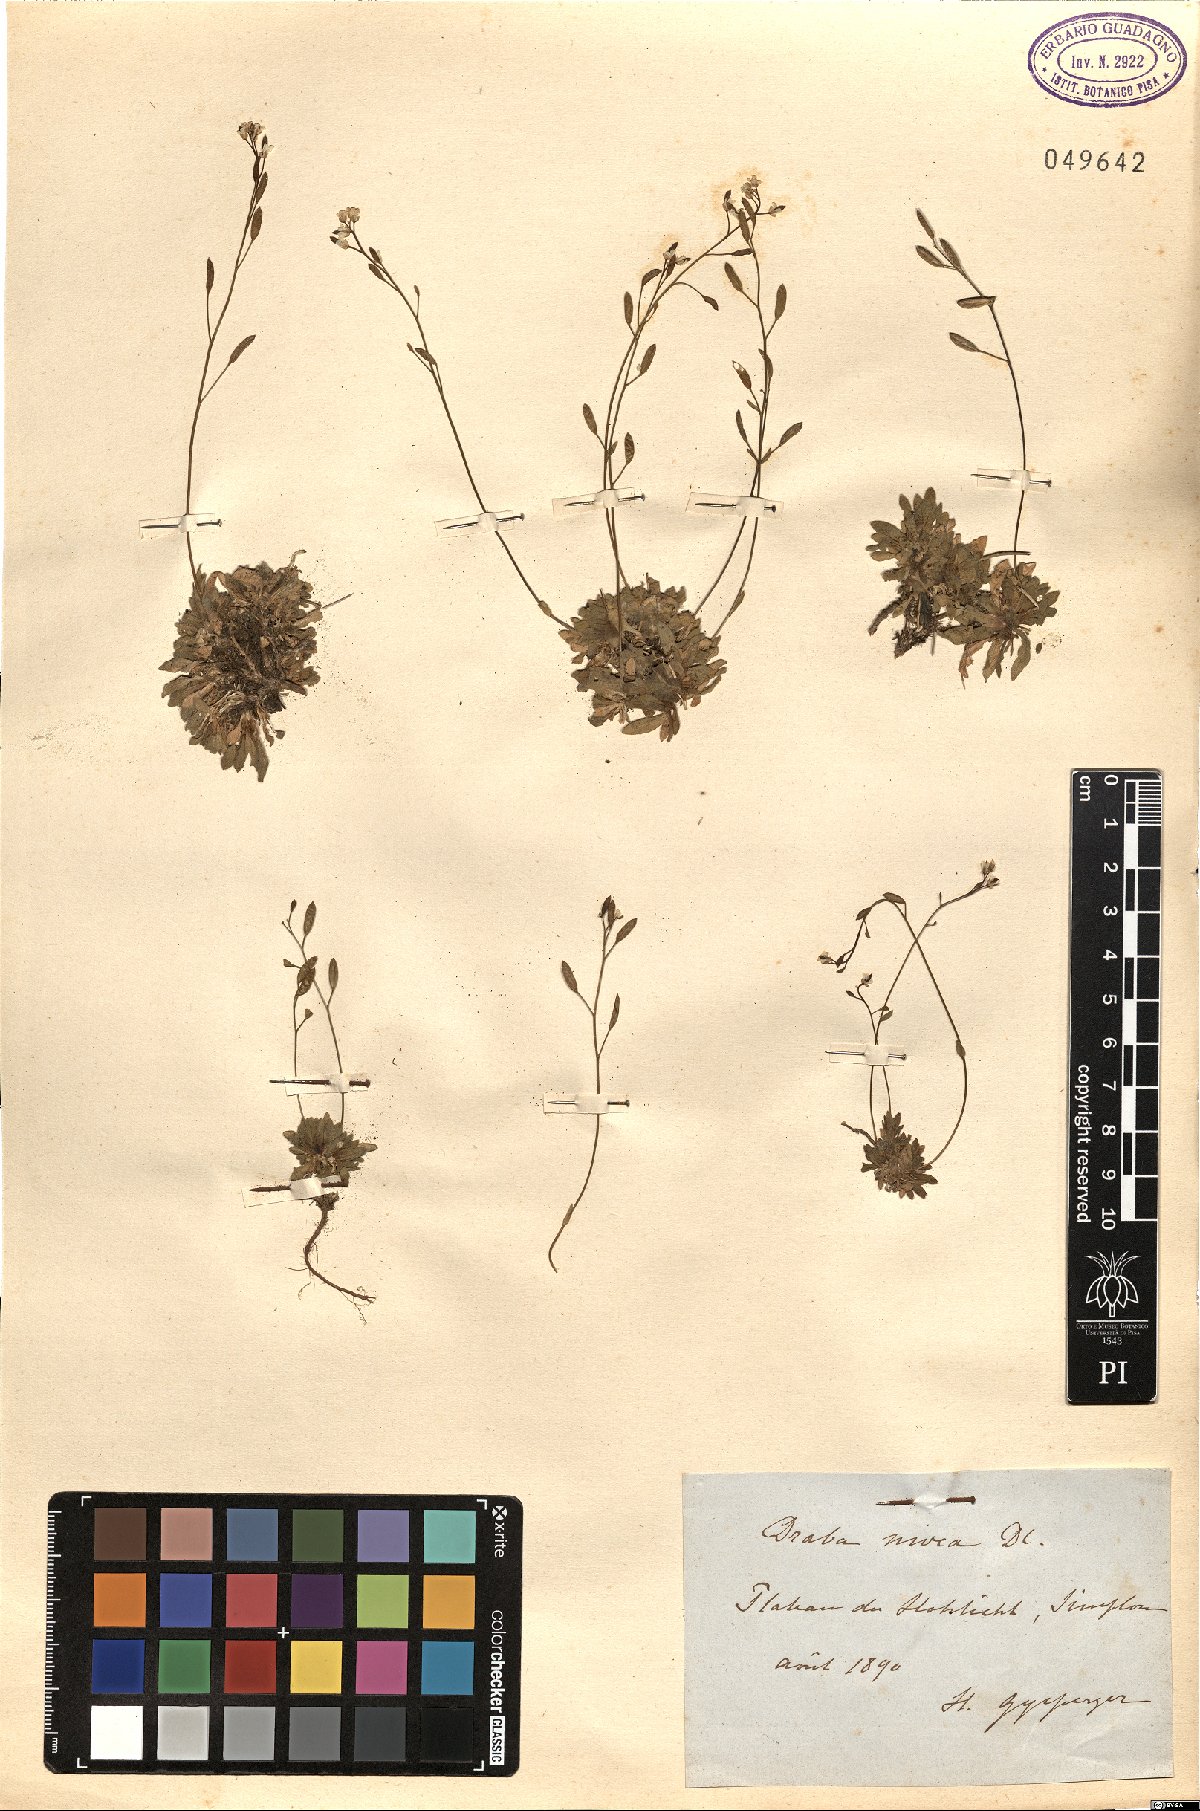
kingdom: Plantae
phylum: Tracheophyta
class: Magnoliopsida
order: Brassicales
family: Brassicaceae
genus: Draba
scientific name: Draba tomentosa
